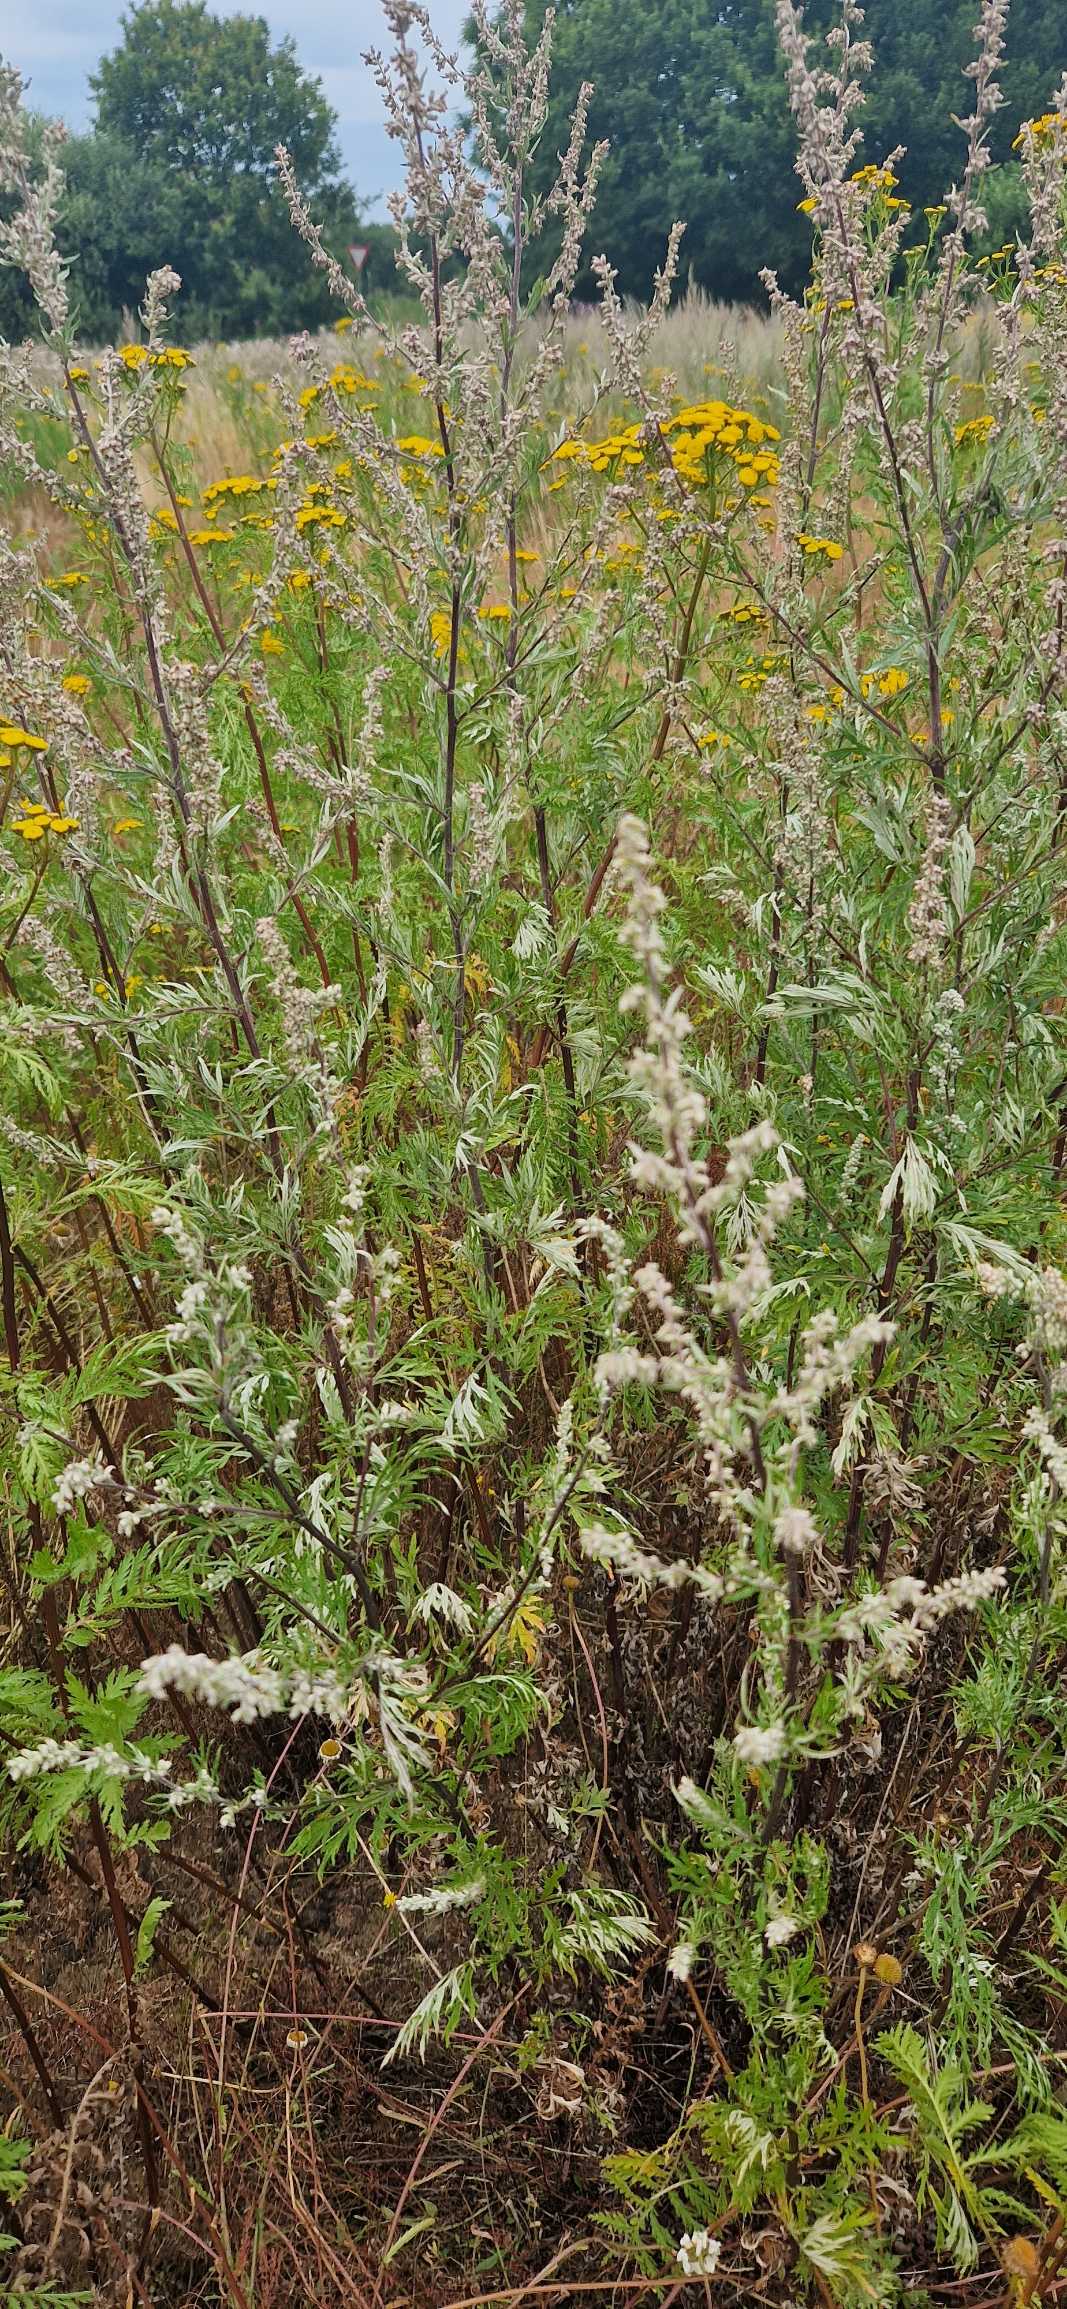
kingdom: Plantae
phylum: Tracheophyta
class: Magnoliopsida
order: Asterales
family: Asteraceae
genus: Artemisia
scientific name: Artemisia vulgaris
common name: Grå-bynke
